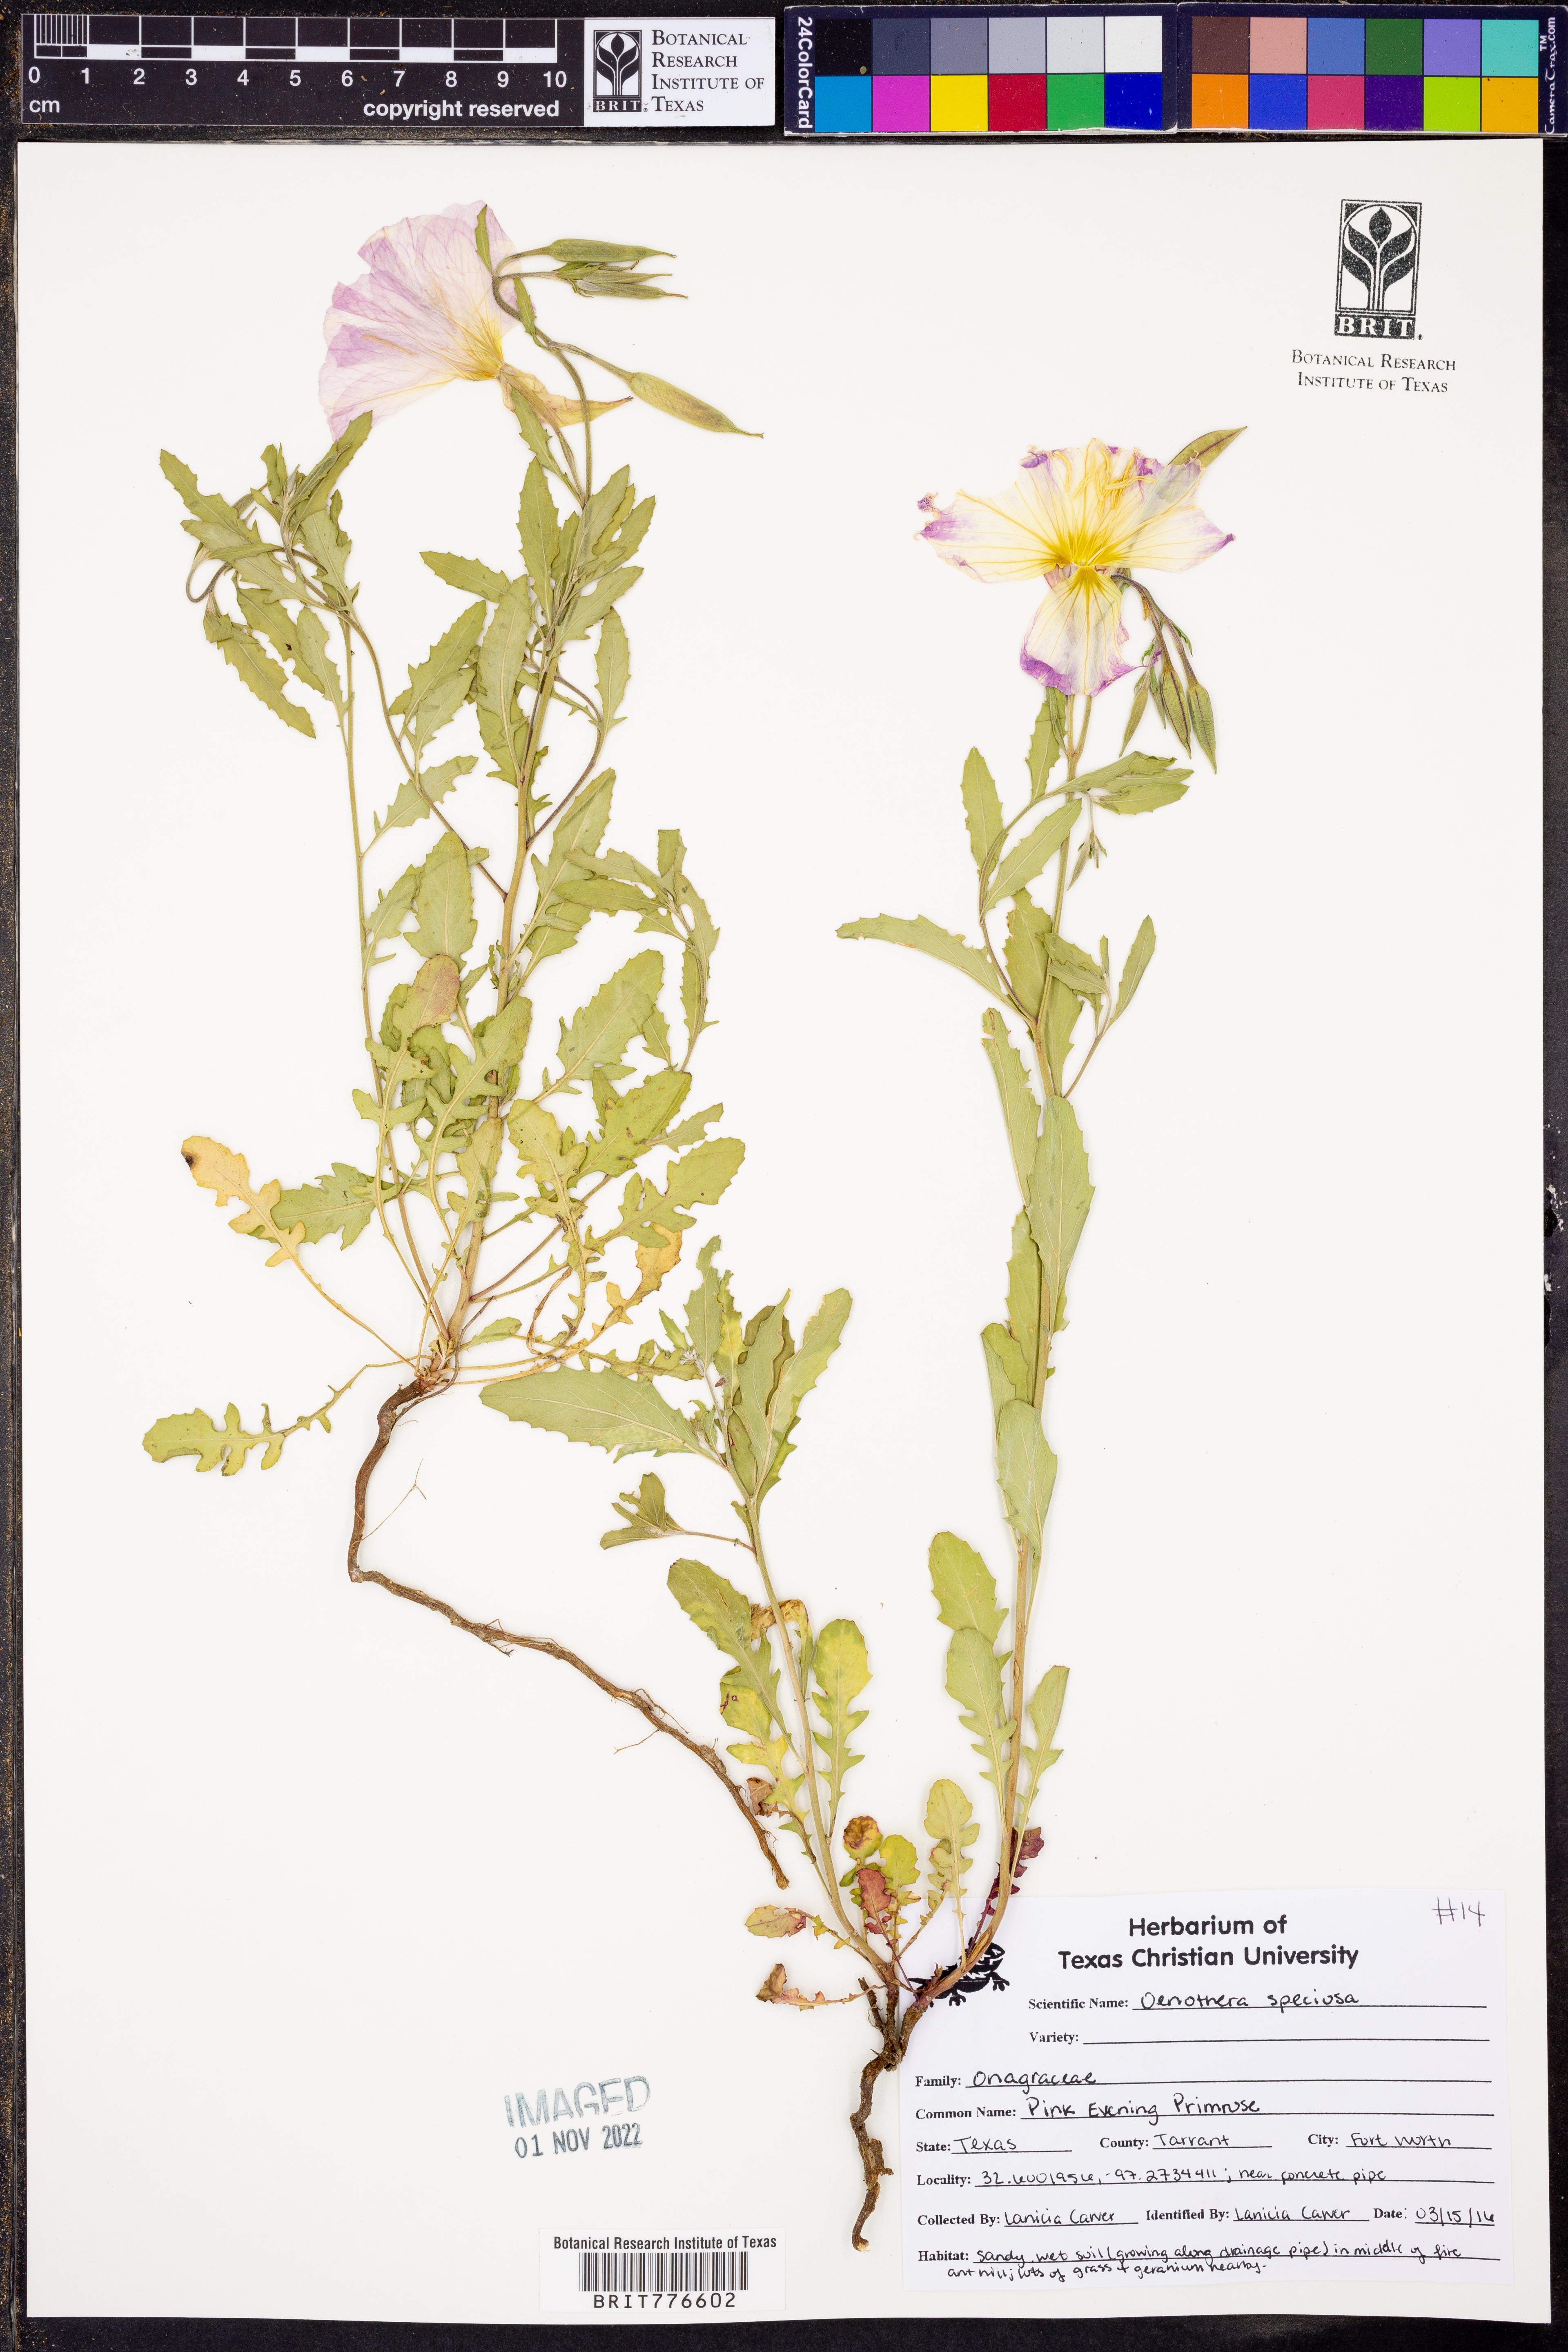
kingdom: Plantae
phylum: Tracheophyta
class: Magnoliopsida
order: Myrtales
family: Onagraceae
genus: Oenothera
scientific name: Oenothera speciosa
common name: White evening-primrose
